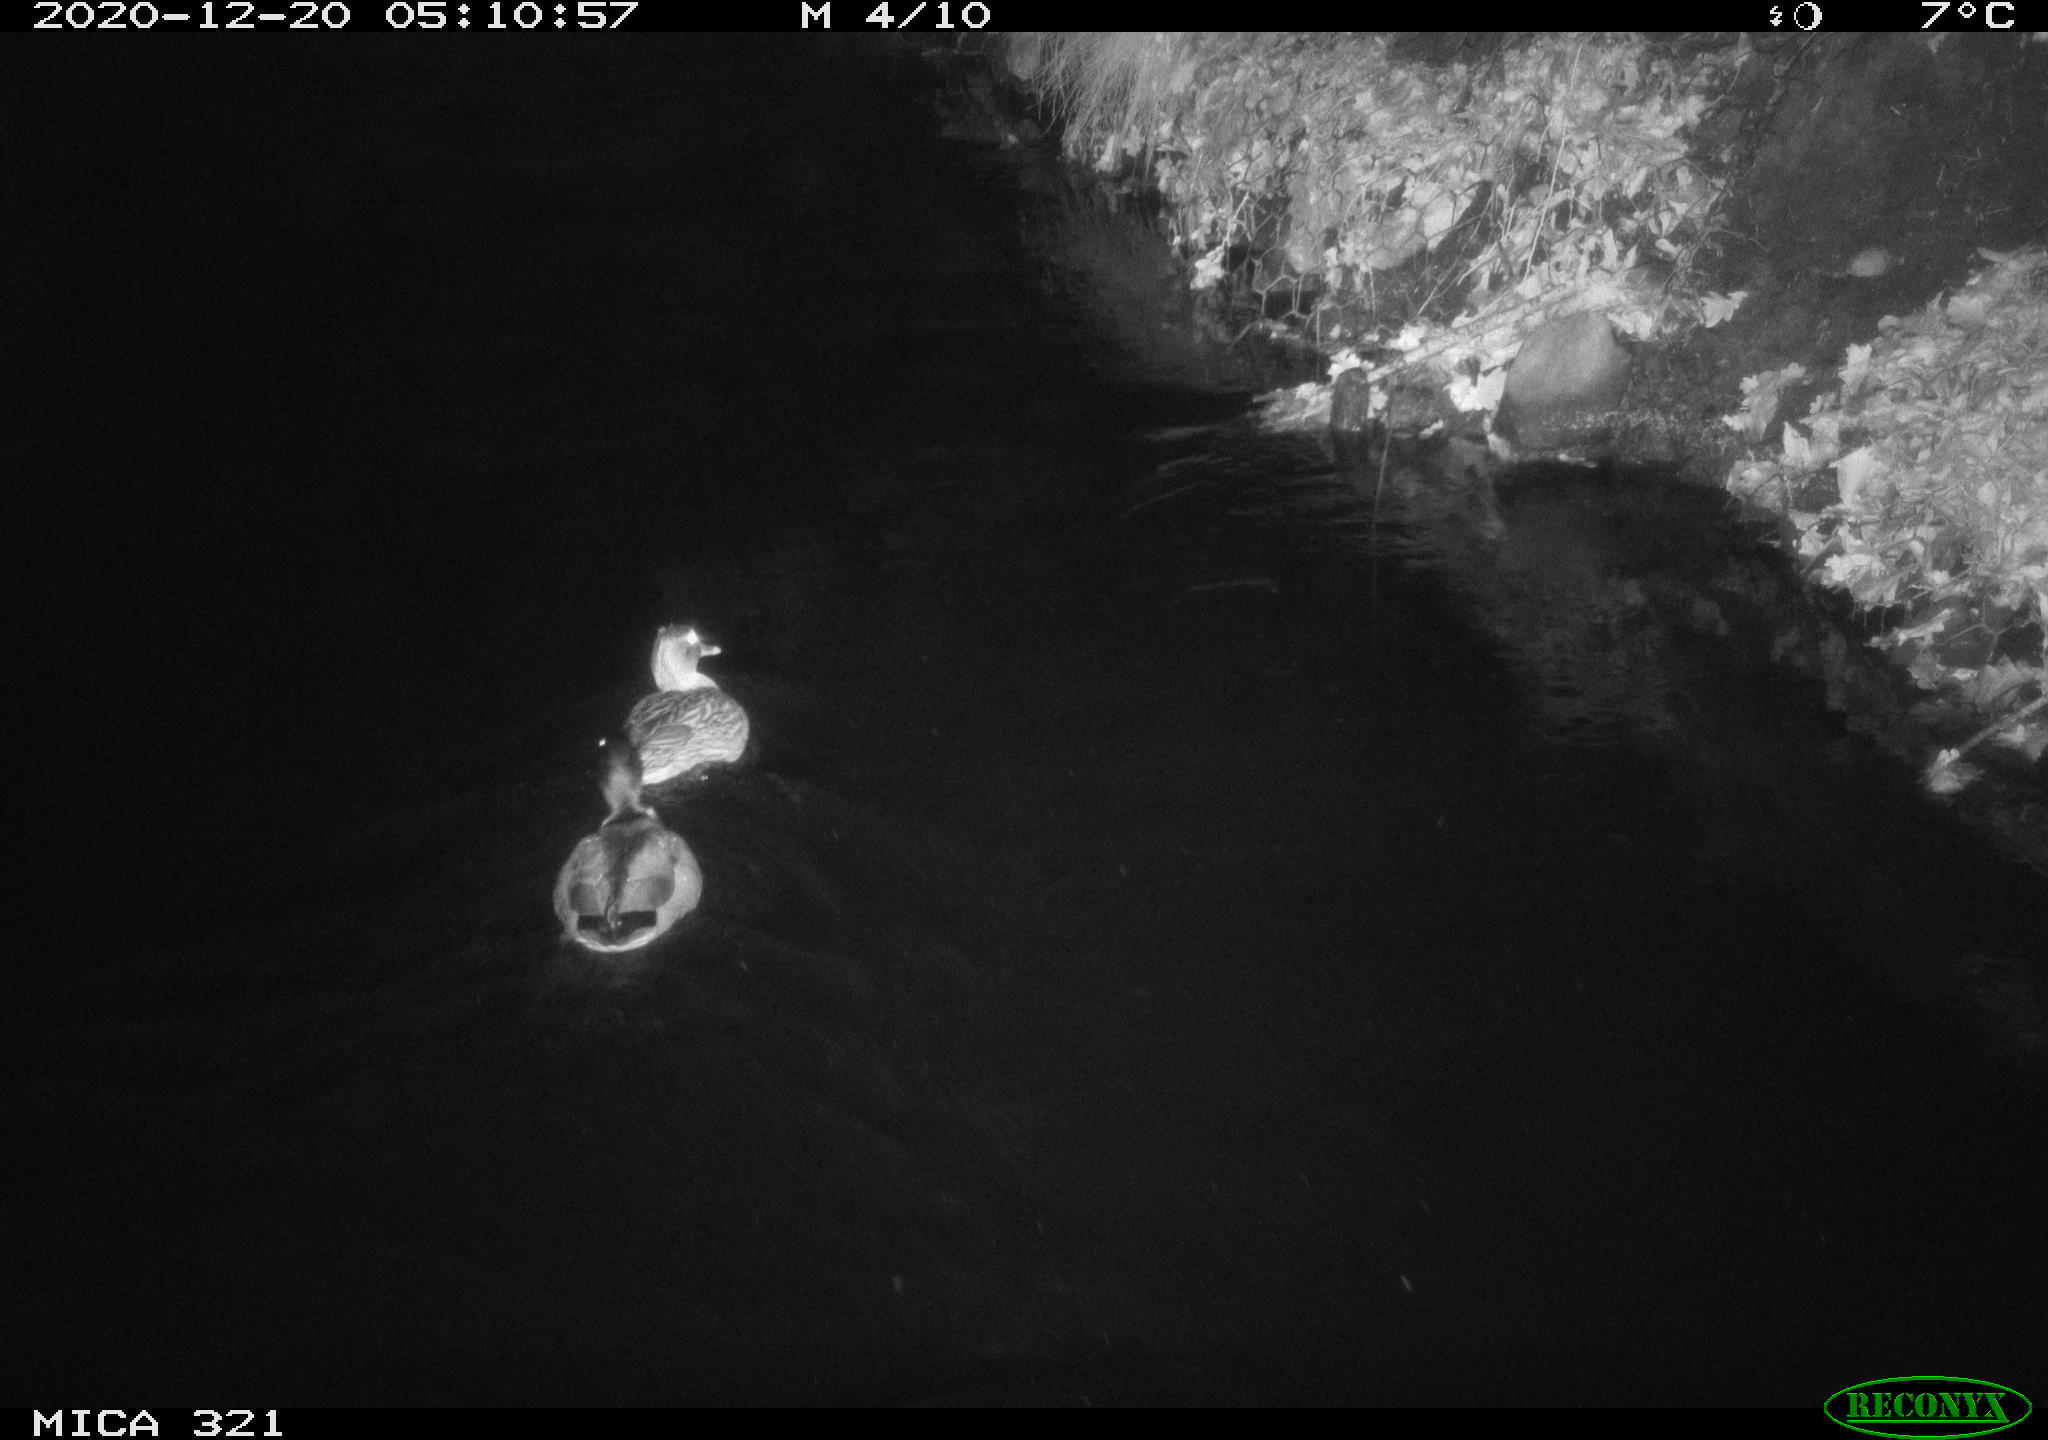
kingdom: Animalia
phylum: Chordata
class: Aves
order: Anseriformes
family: Anatidae
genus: Anas
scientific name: Anas platyrhynchos
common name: Mallard
